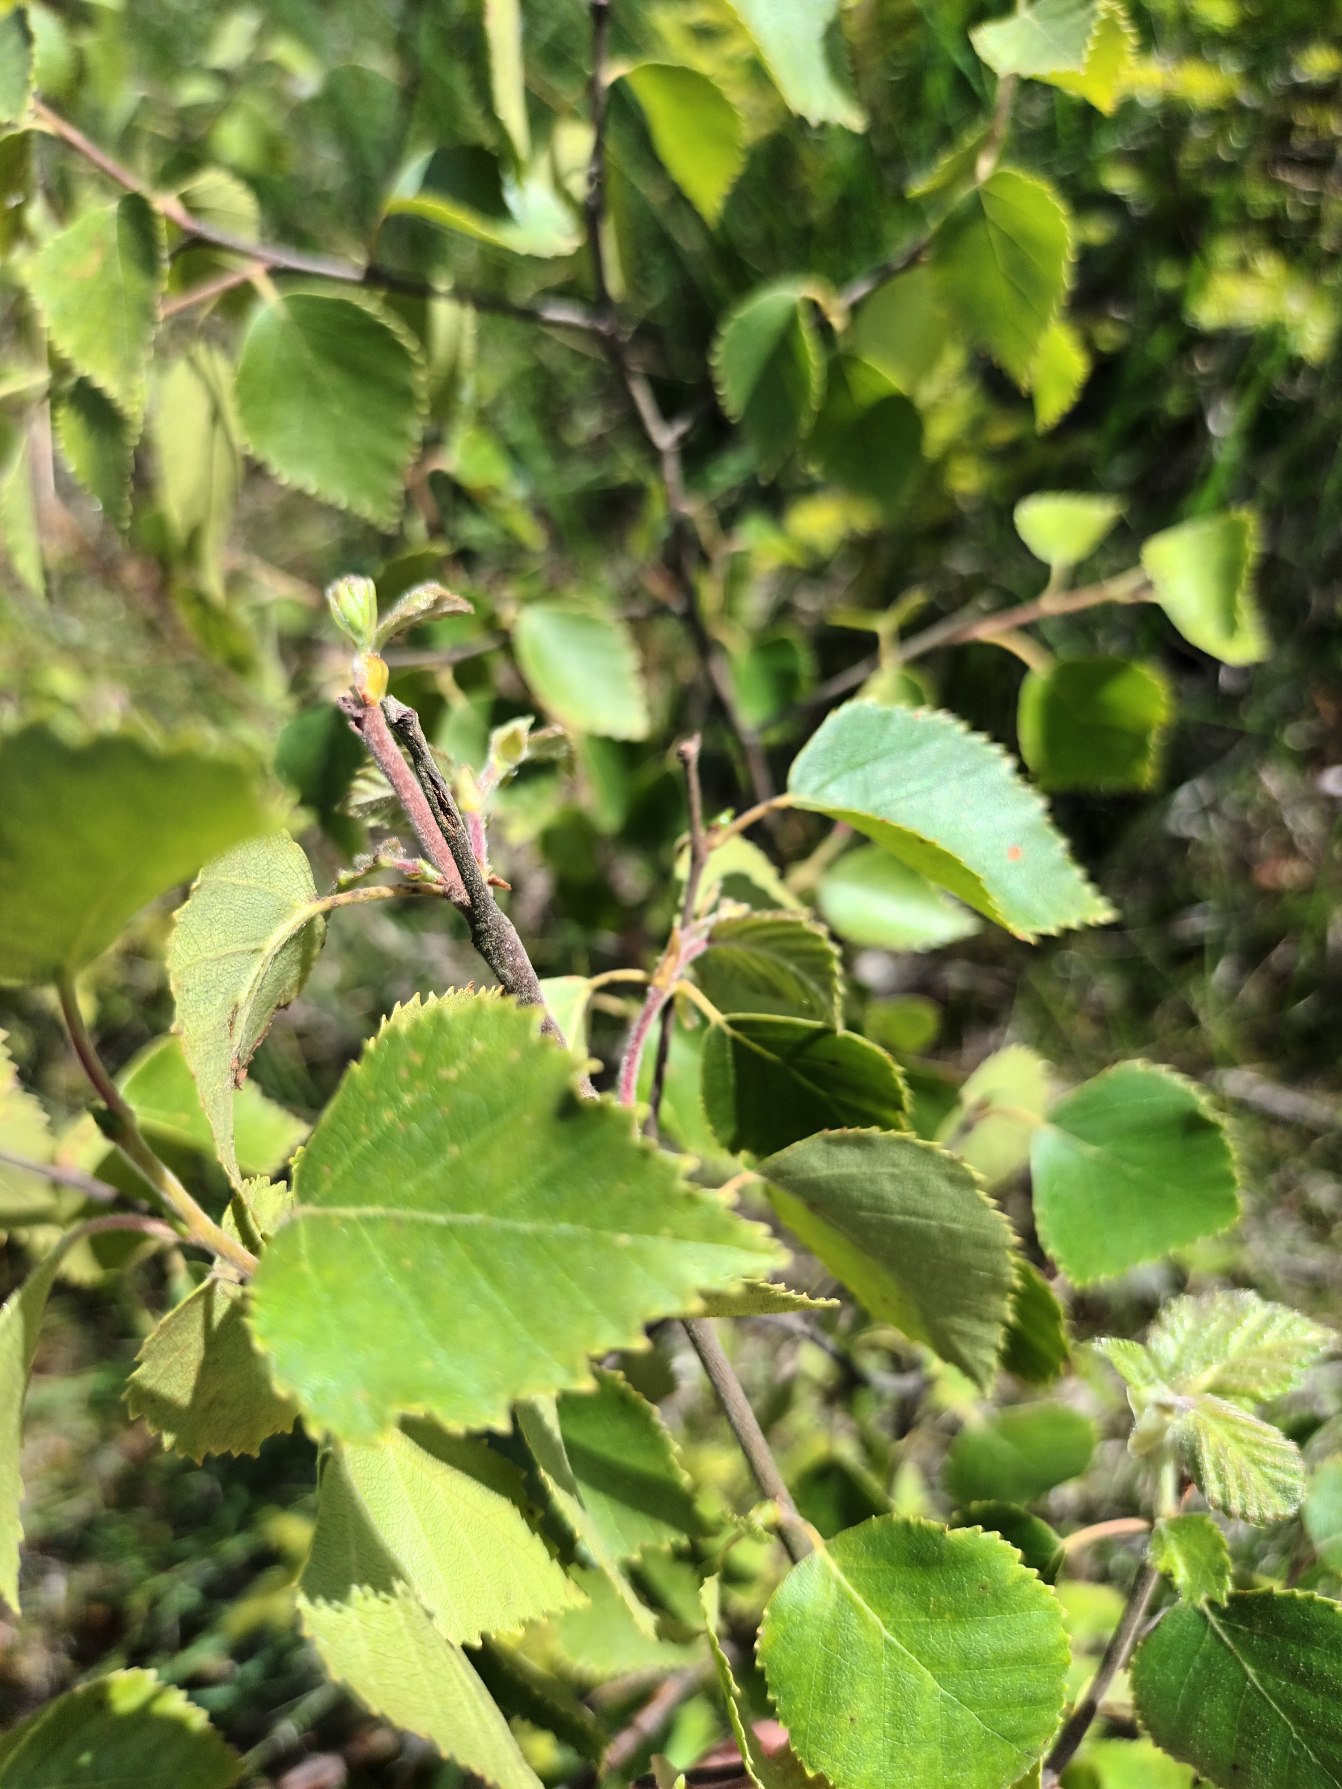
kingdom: Plantae
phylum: Tracheophyta
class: Magnoliopsida
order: Fagales
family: Betulaceae
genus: Betula
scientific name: Betula pubescens
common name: Dun-birk
